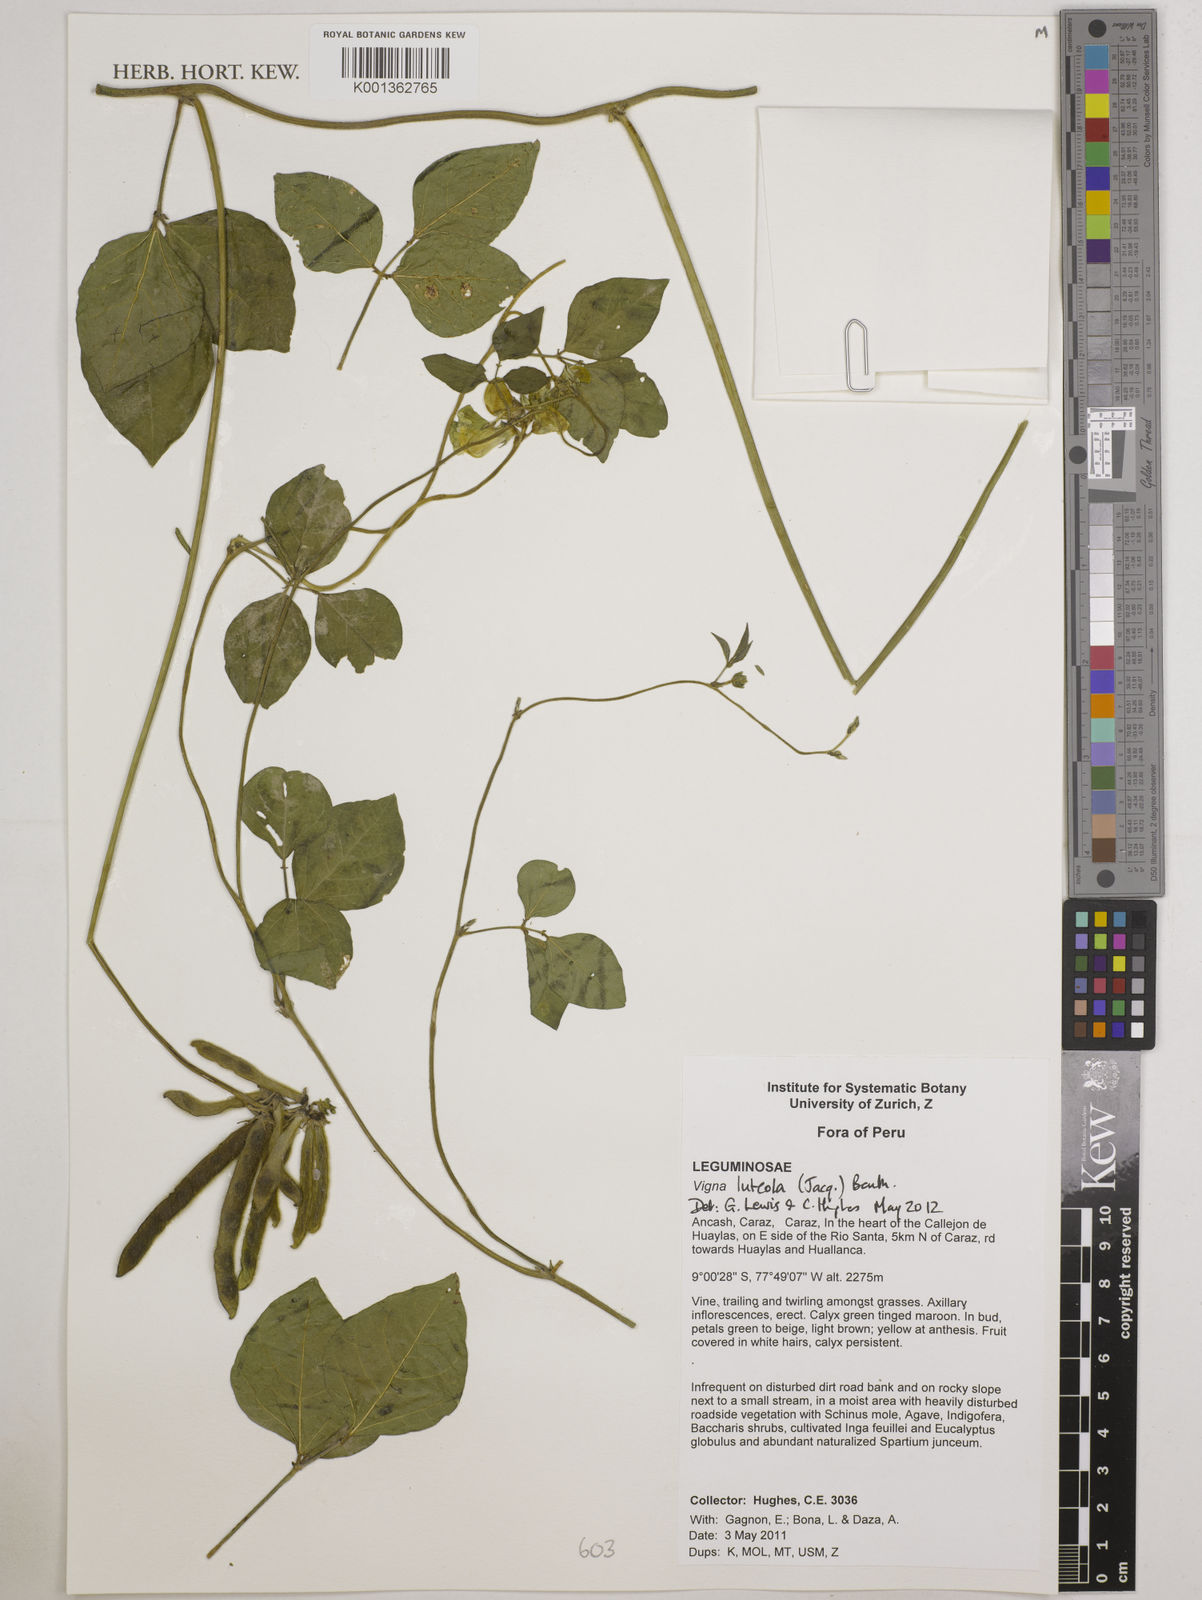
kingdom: Plantae
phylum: Tracheophyta
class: Magnoliopsida
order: Fabales
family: Fabaceae
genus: Vigna
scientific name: Vigna luteola
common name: Hairypod cowpea
